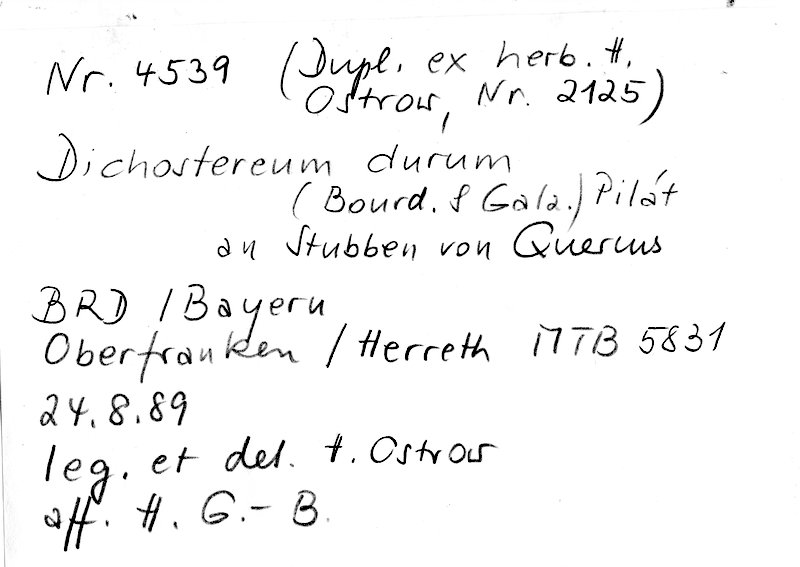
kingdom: Fungi
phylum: Basidiomycota
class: Agaricomycetes
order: Russulales
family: Peniophoraceae
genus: Dichostereum
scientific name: Dichostereum durum
